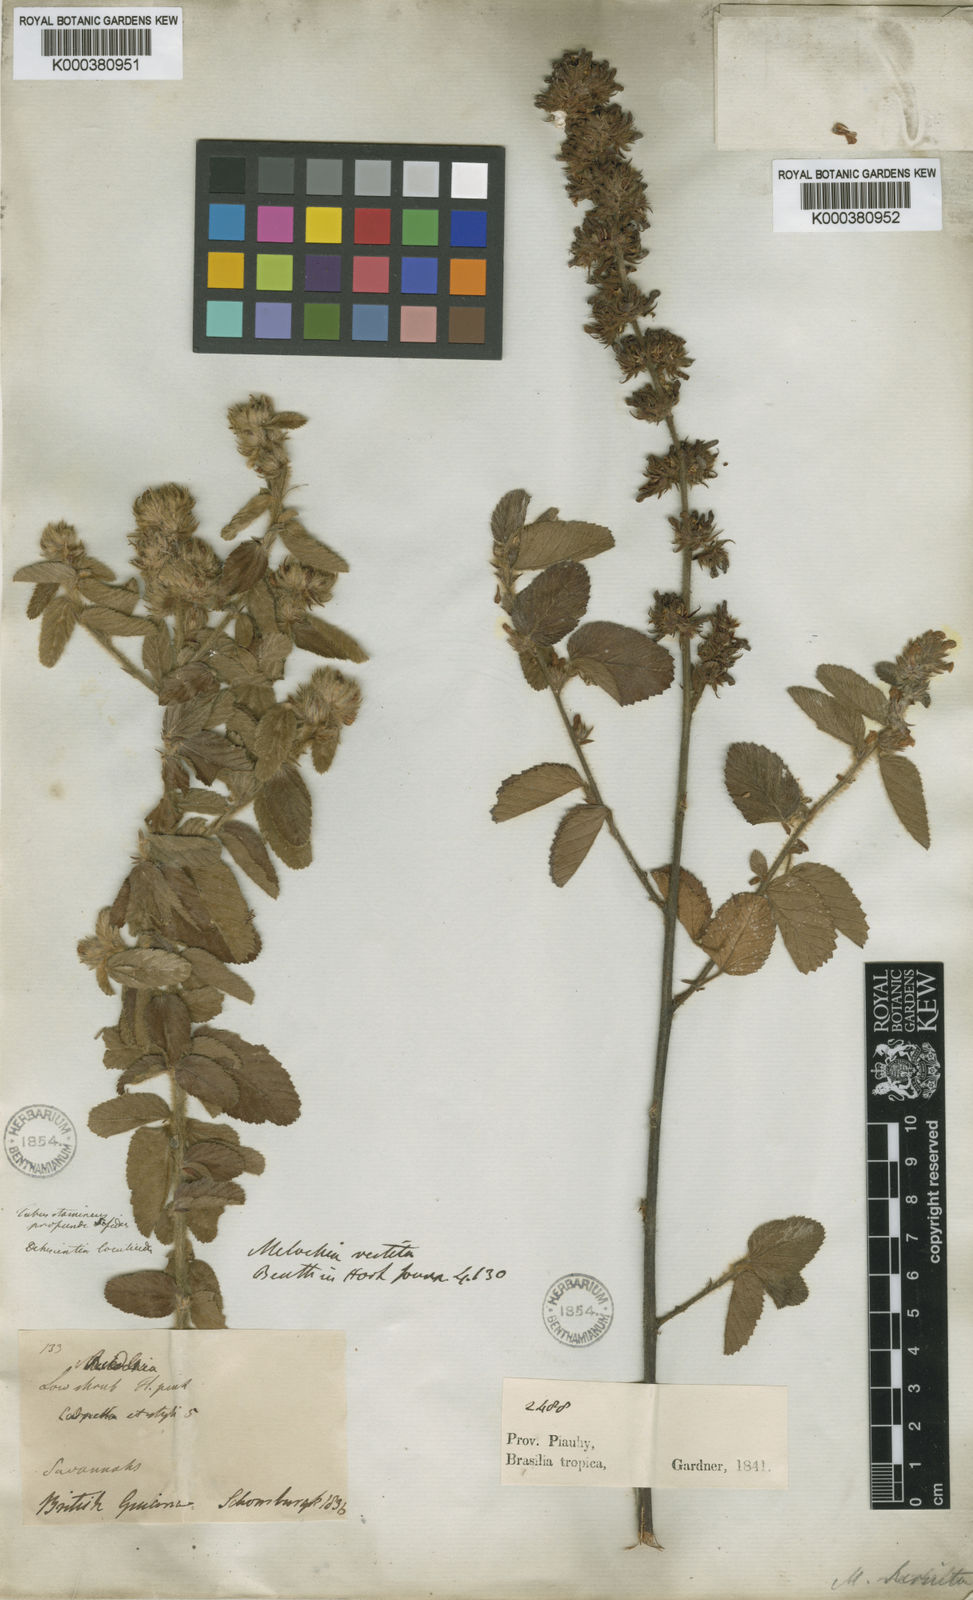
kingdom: Plantae
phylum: Tracheophyta
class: Magnoliopsida
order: Malvales
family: Malvaceae
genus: Melochia
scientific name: Melochia melissifolia
